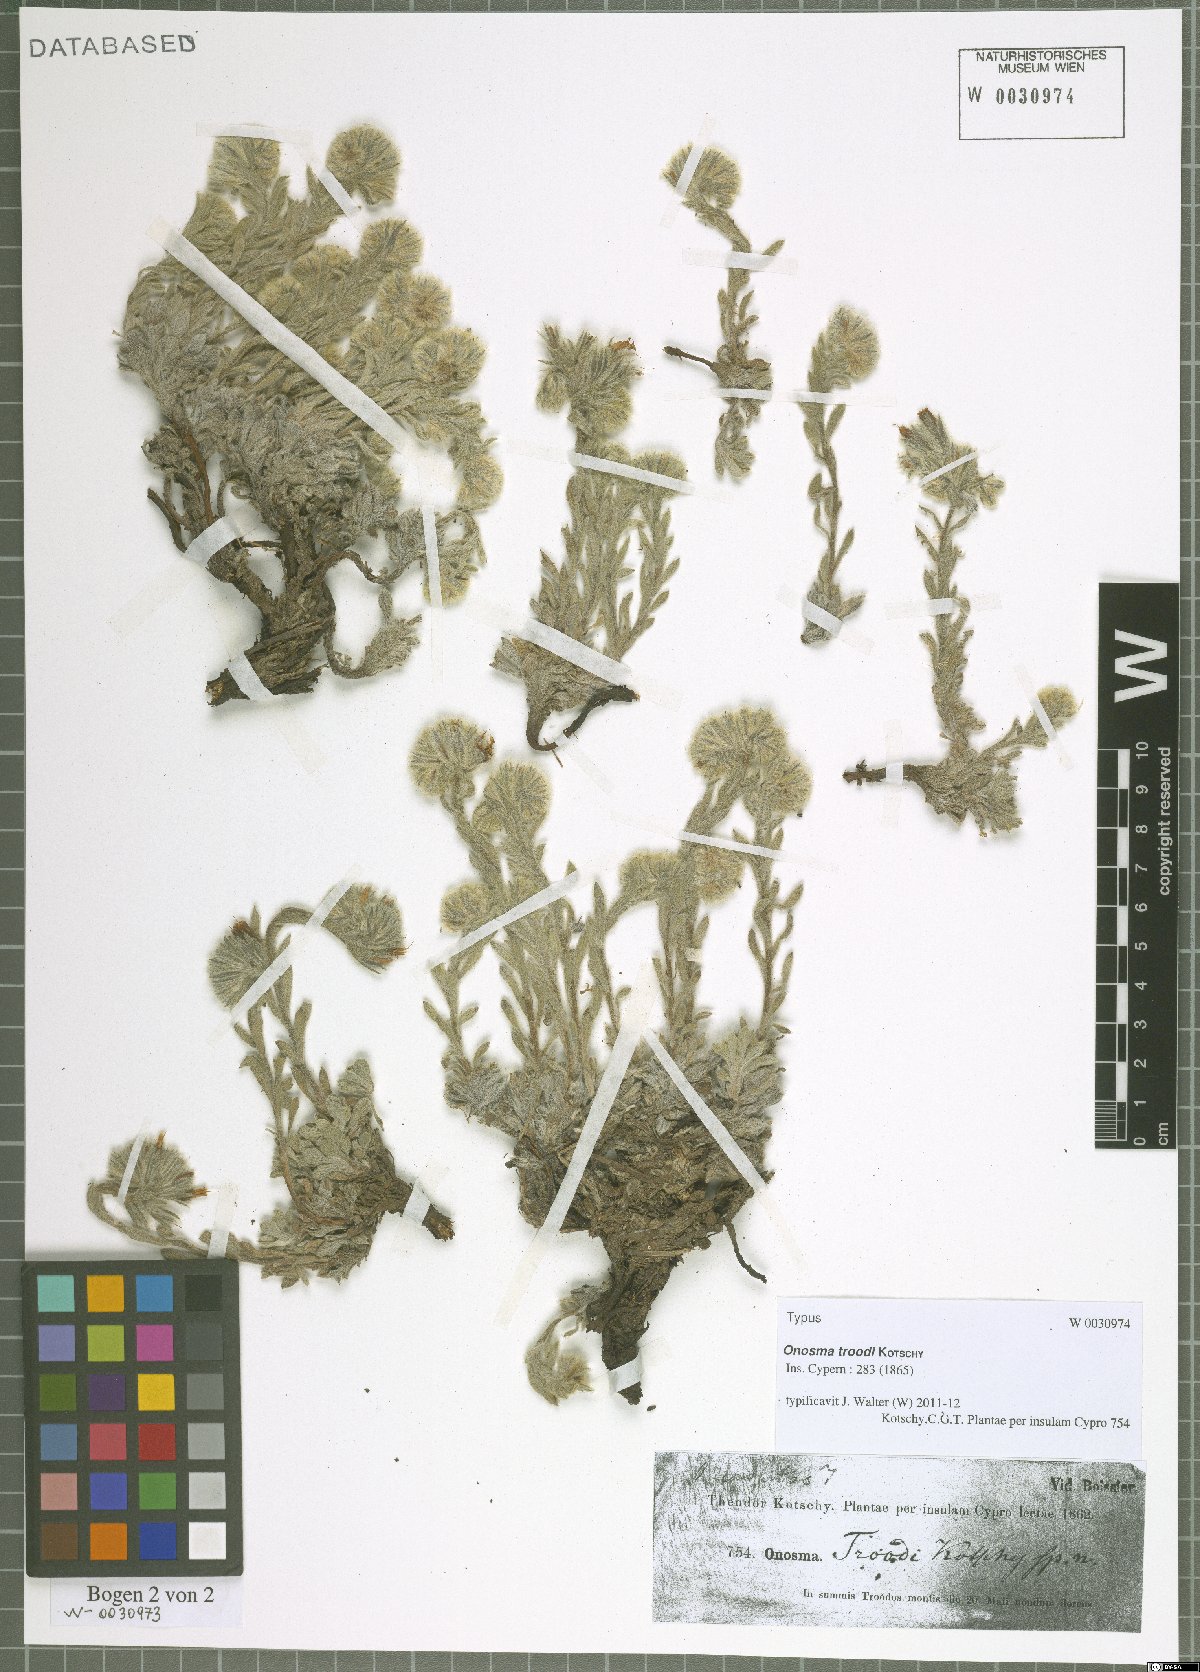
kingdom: Plantae
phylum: Tracheophyta
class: Magnoliopsida
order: Boraginales
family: Boraginaceae
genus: Onosma
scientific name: Onosma troodi
